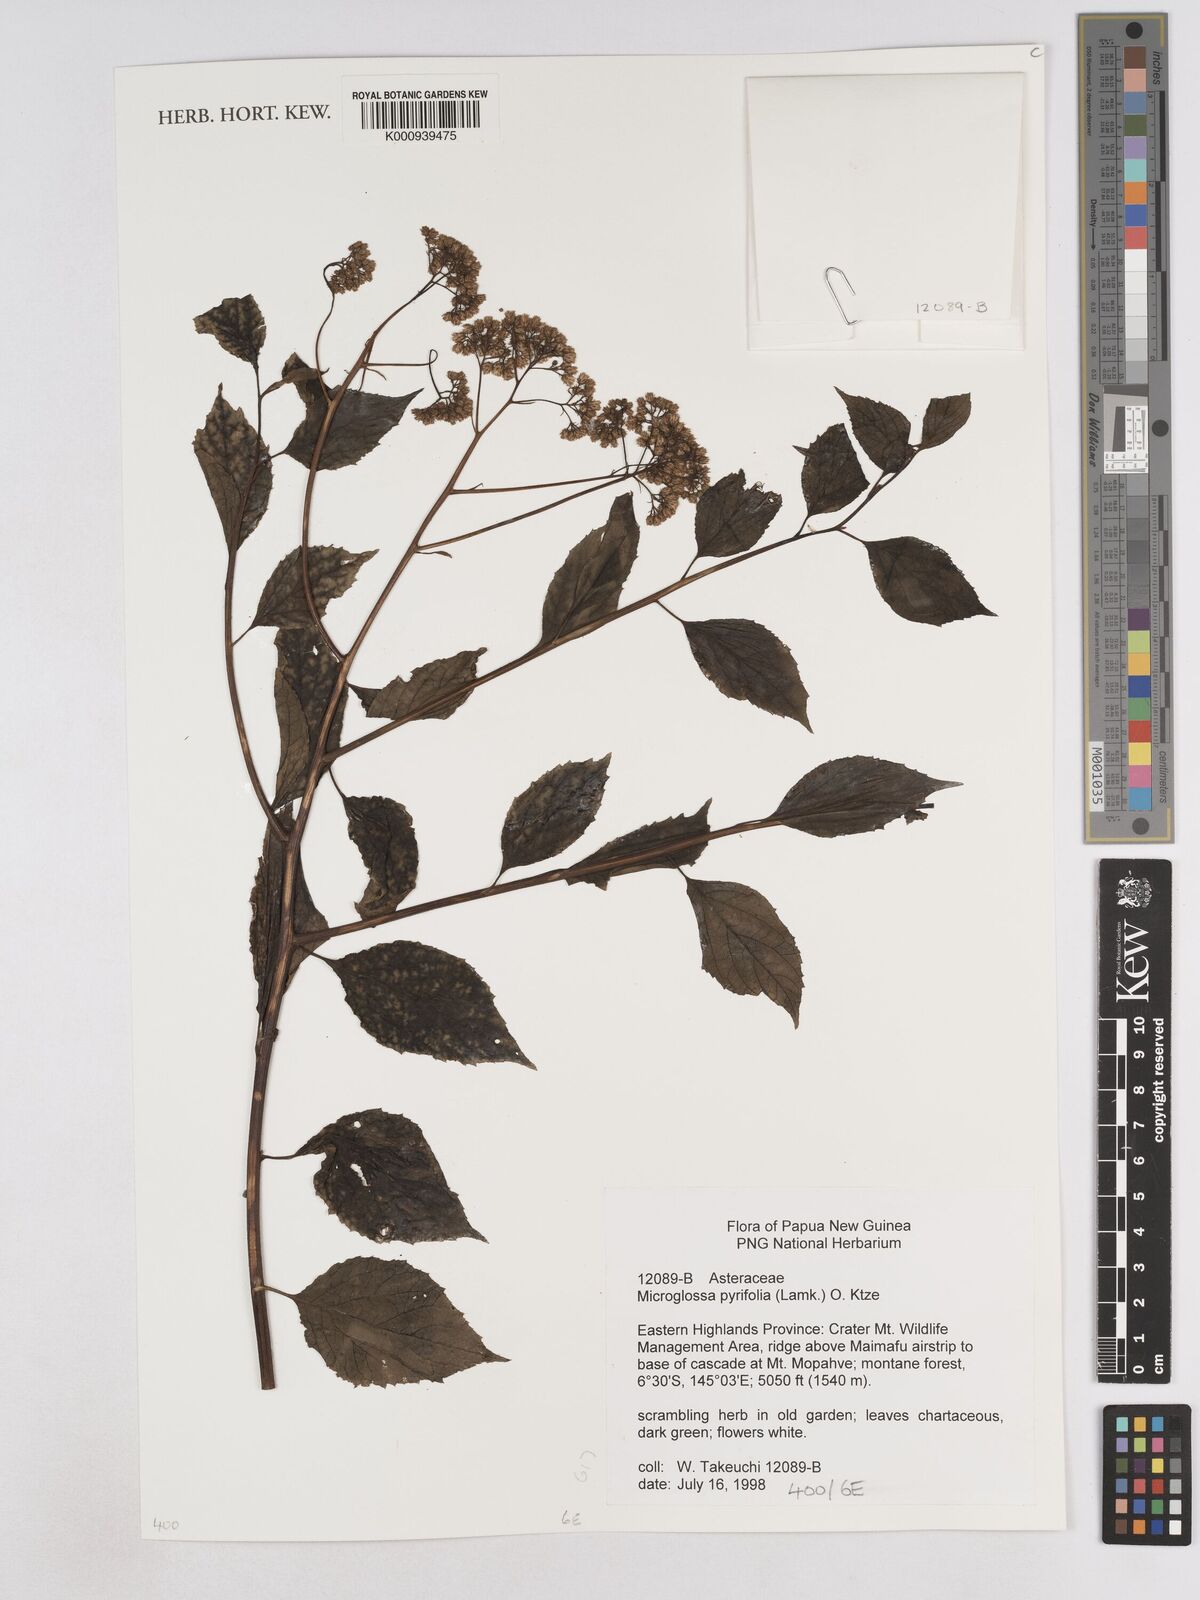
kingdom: Plantae
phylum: Tracheophyta
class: Magnoliopsida
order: Asterales
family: Asteraceae
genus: Microglossa
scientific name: Microglossa
